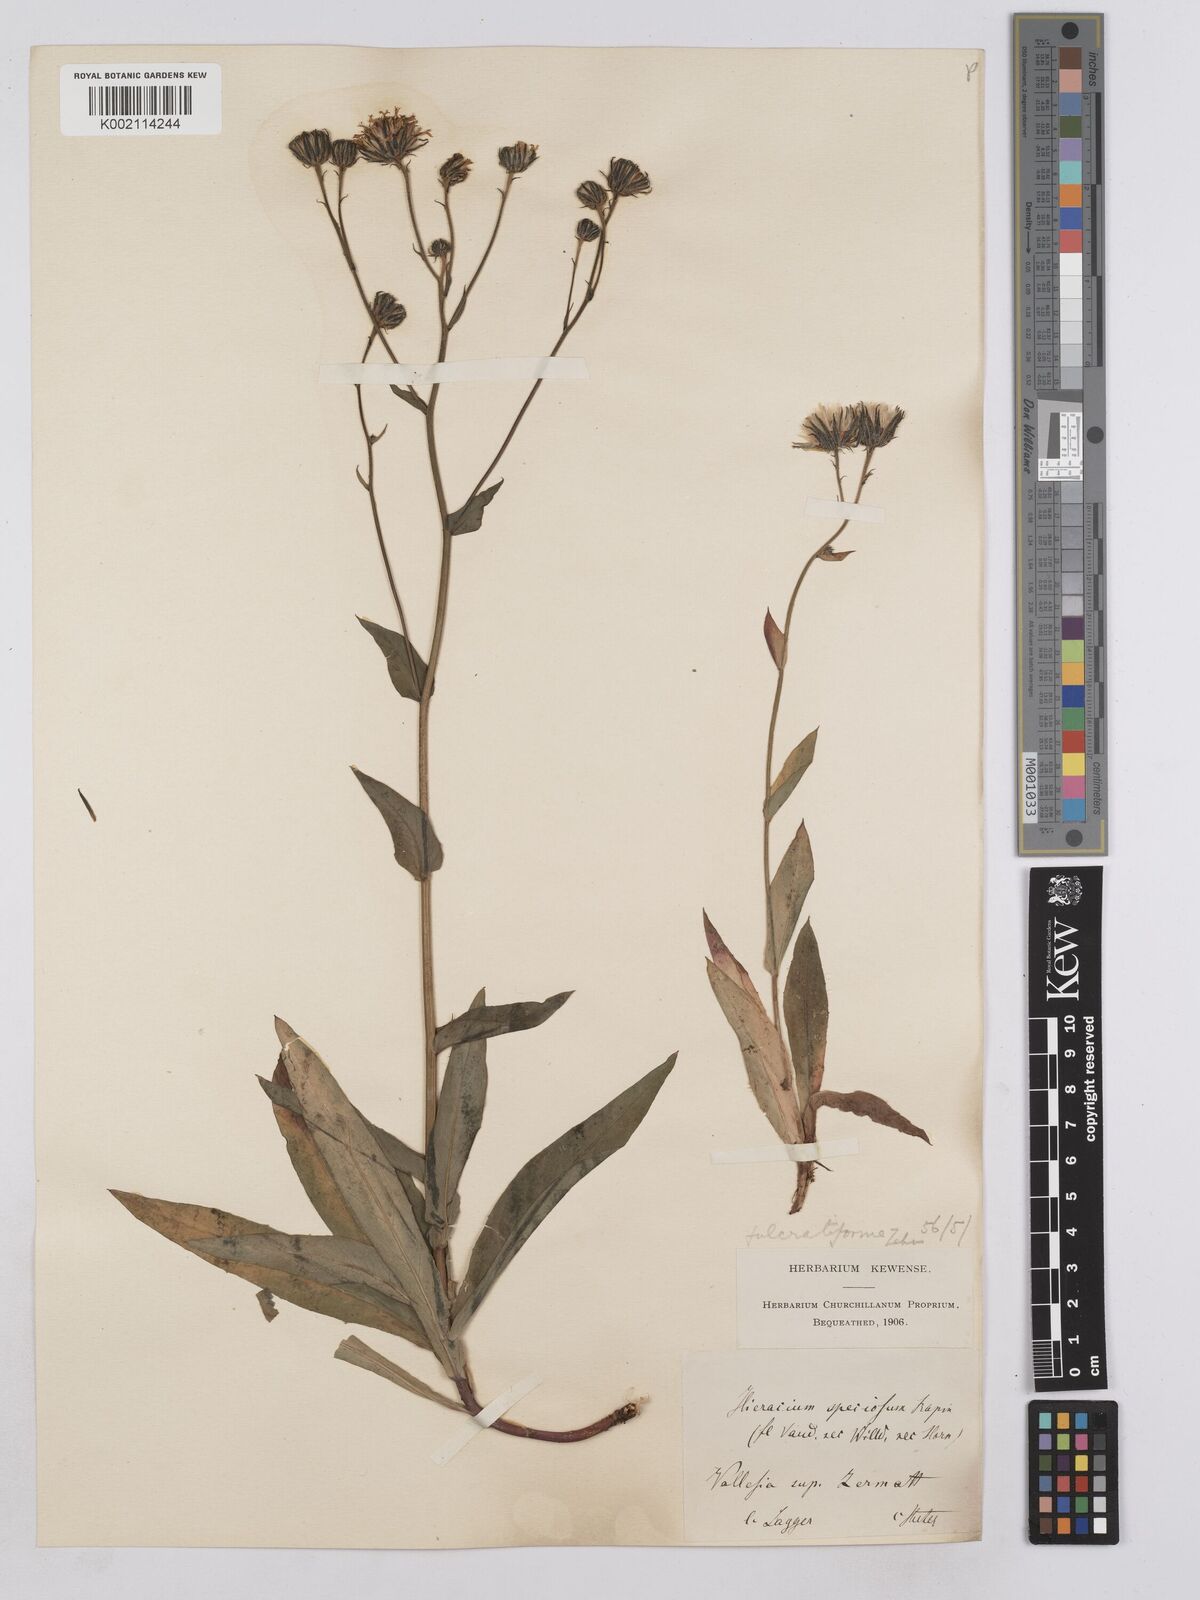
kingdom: Plantae
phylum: Tracheophyta
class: Magnoliopsida
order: Asterales
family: Asteraceae
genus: Hieracium
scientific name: Hieracium chlorifolium
